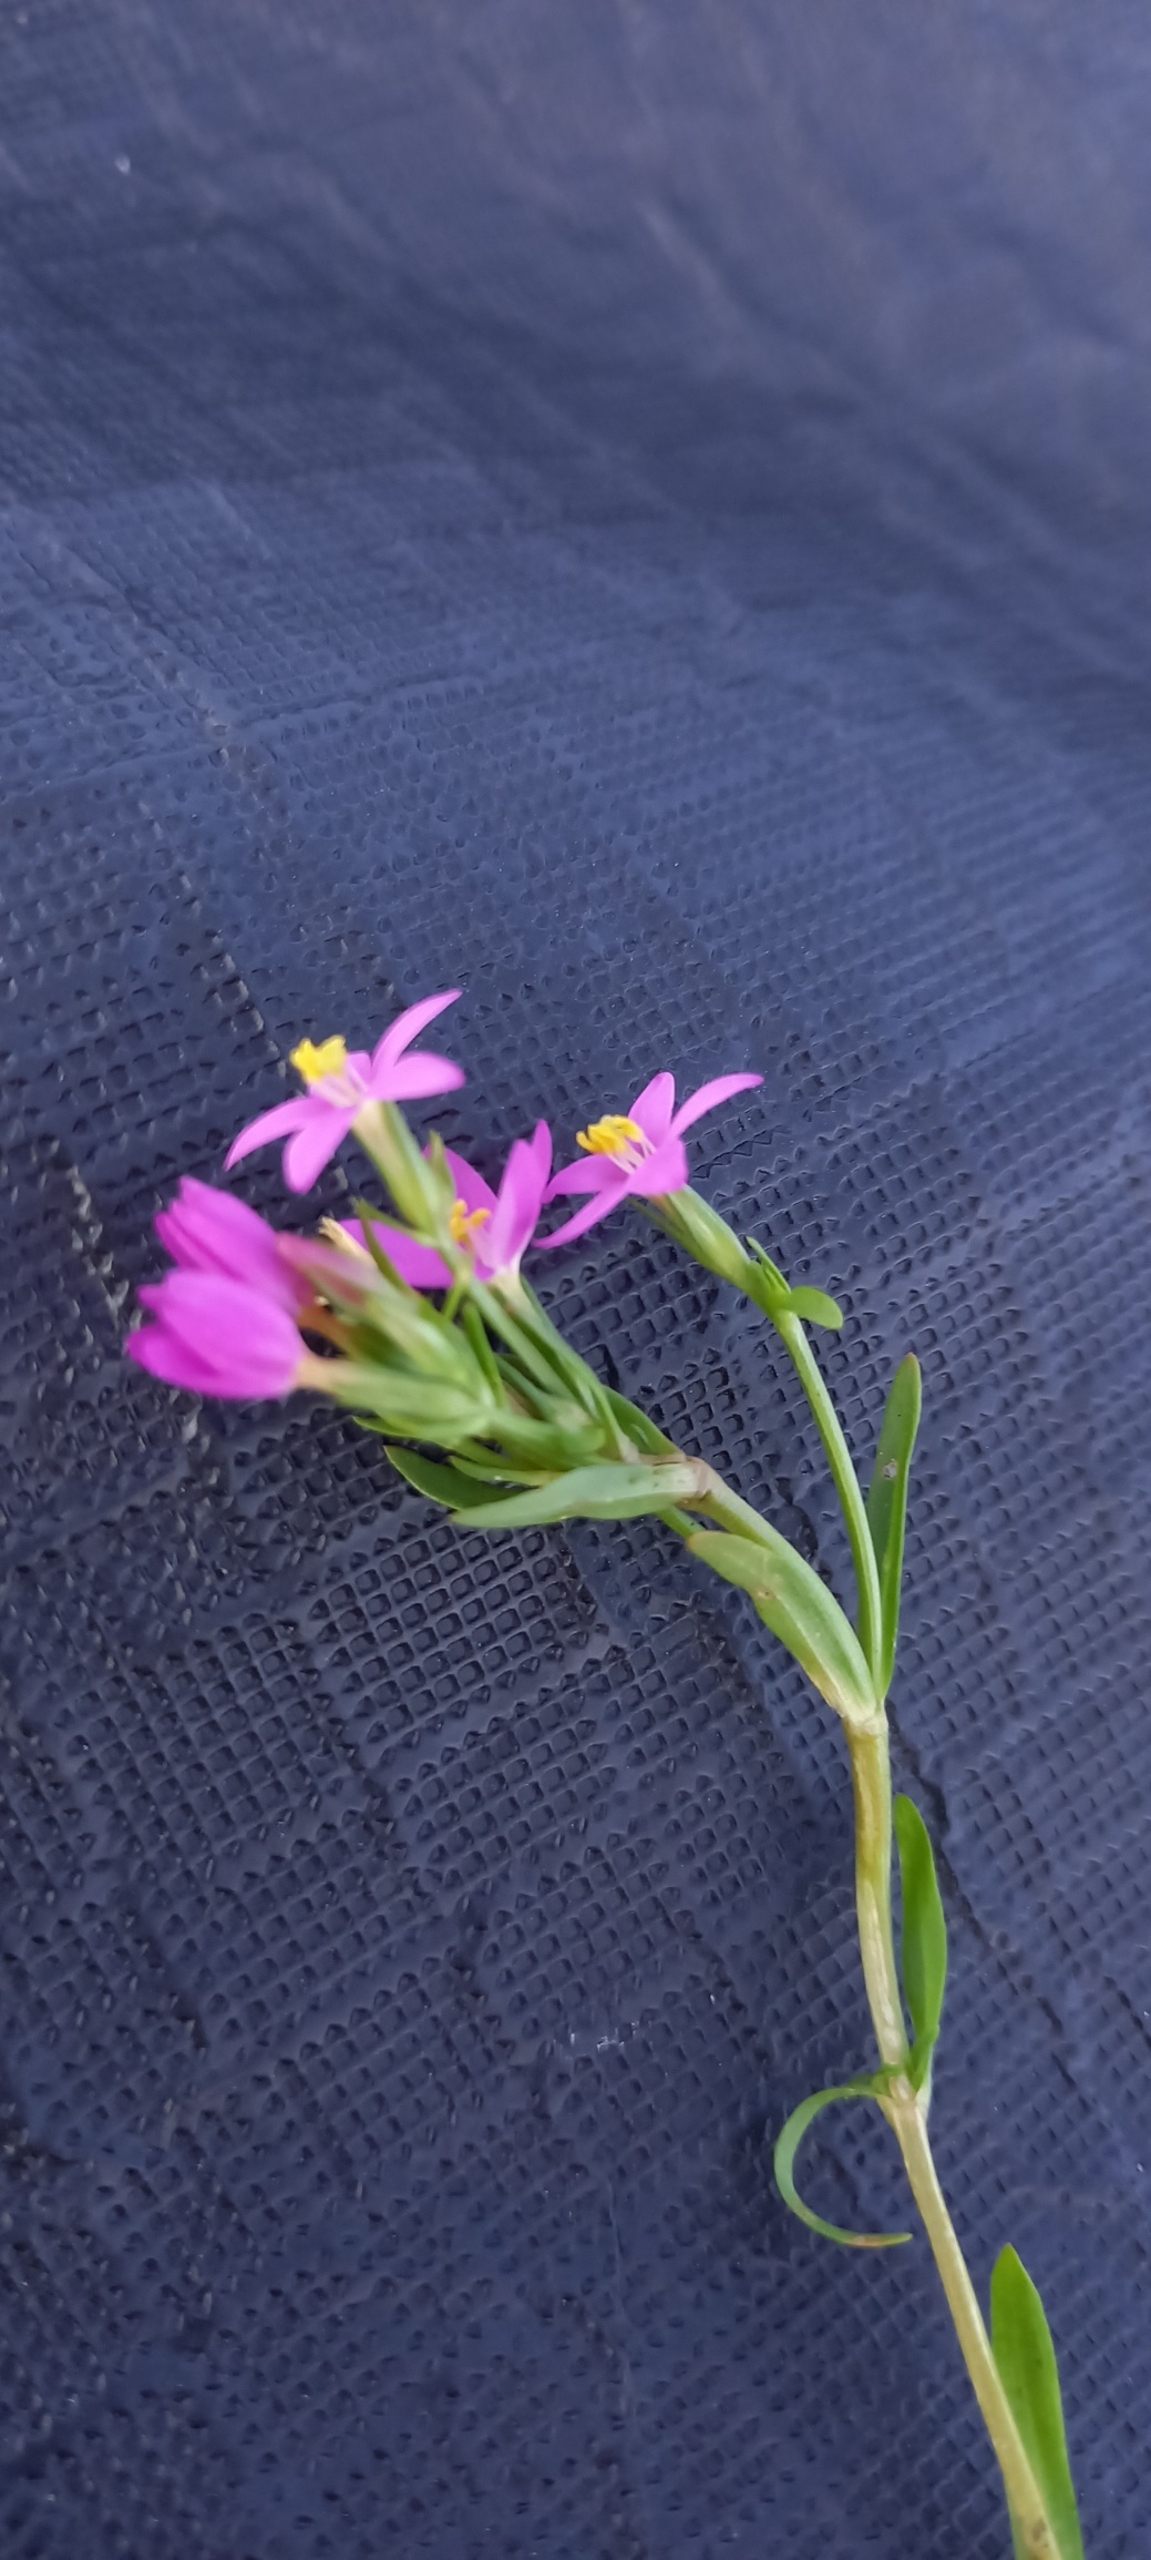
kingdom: Plantae
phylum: Tracheophyta
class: Magnoliopsida
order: Gentianales
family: Gentianaceae
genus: Centaurium
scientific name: Centaurium littorale
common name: Strand-tusindgylden
